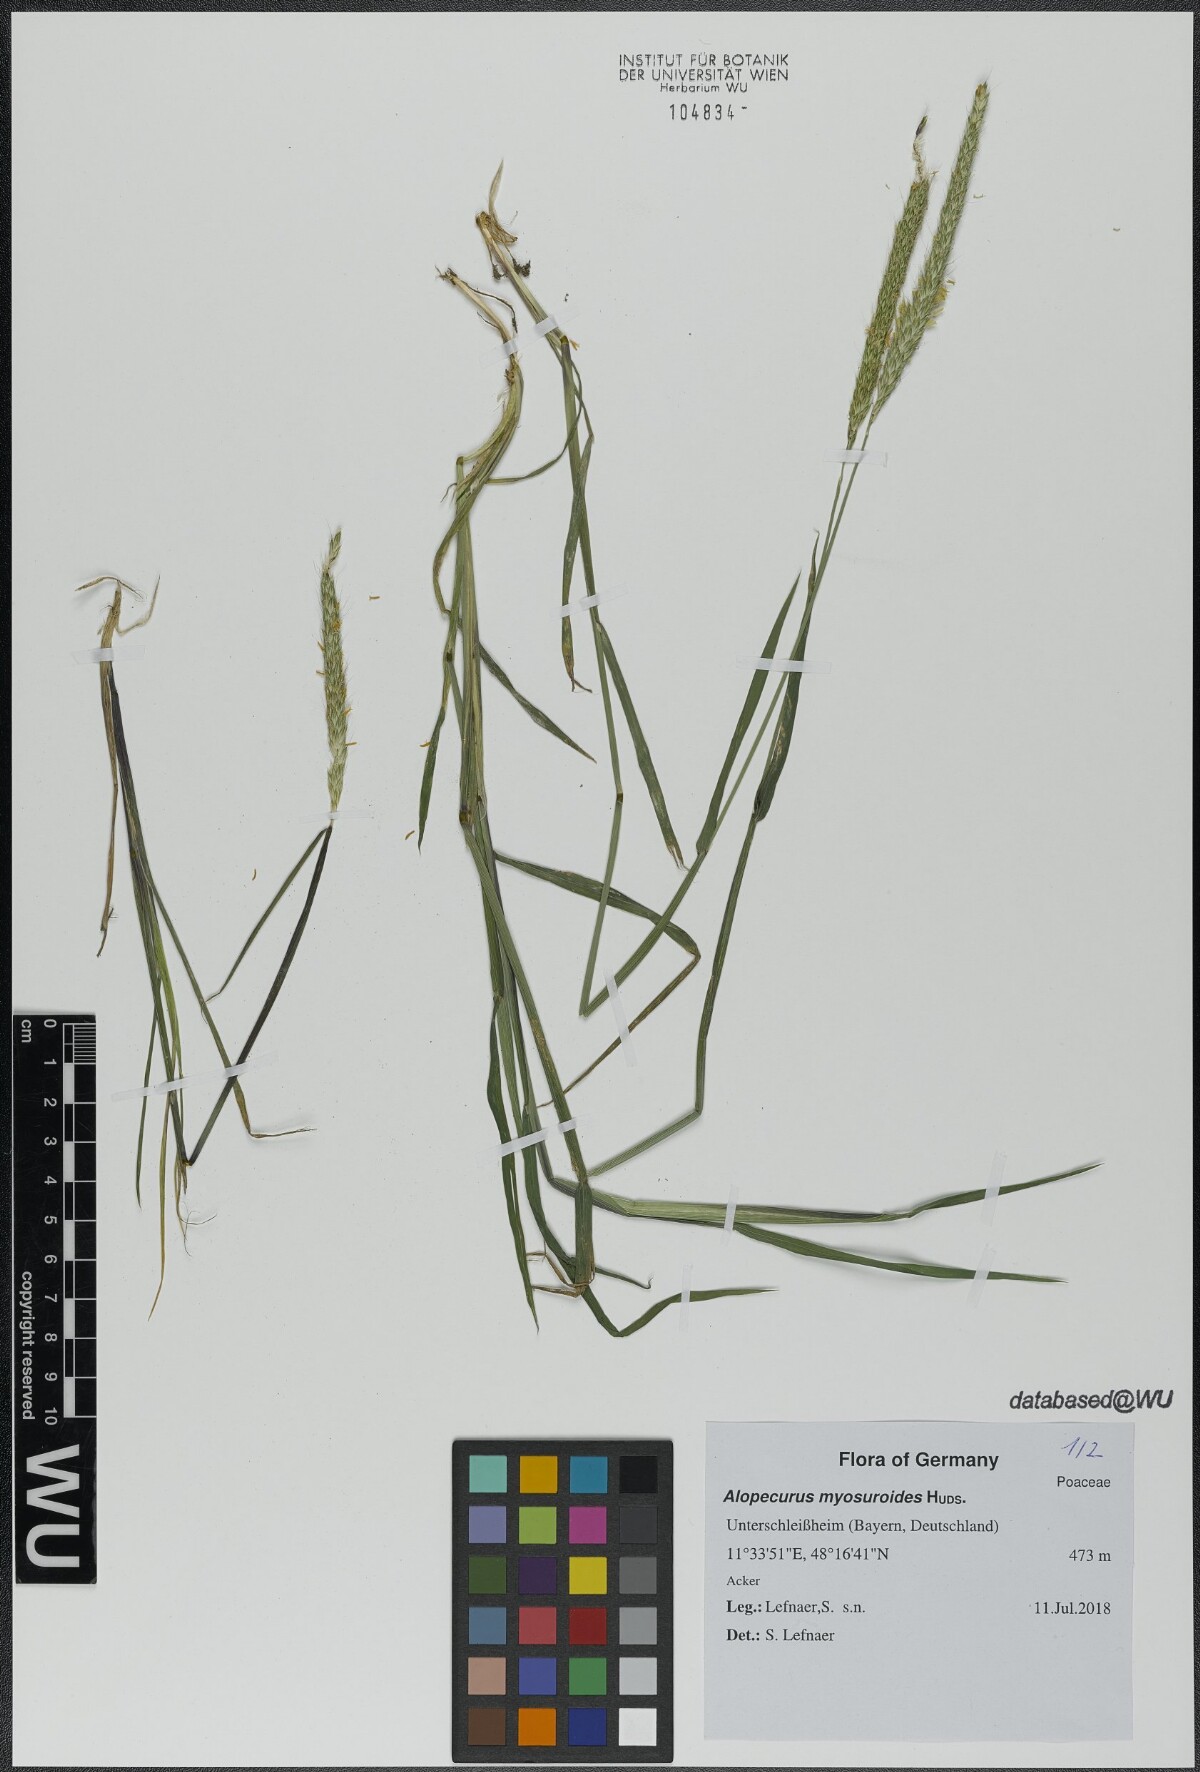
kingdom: Plantae
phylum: Tracheophyta
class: Liliopsida
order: Poales
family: Poaceae
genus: Alopecurus
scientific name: Alopecurus myosuroides
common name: Black-grass
